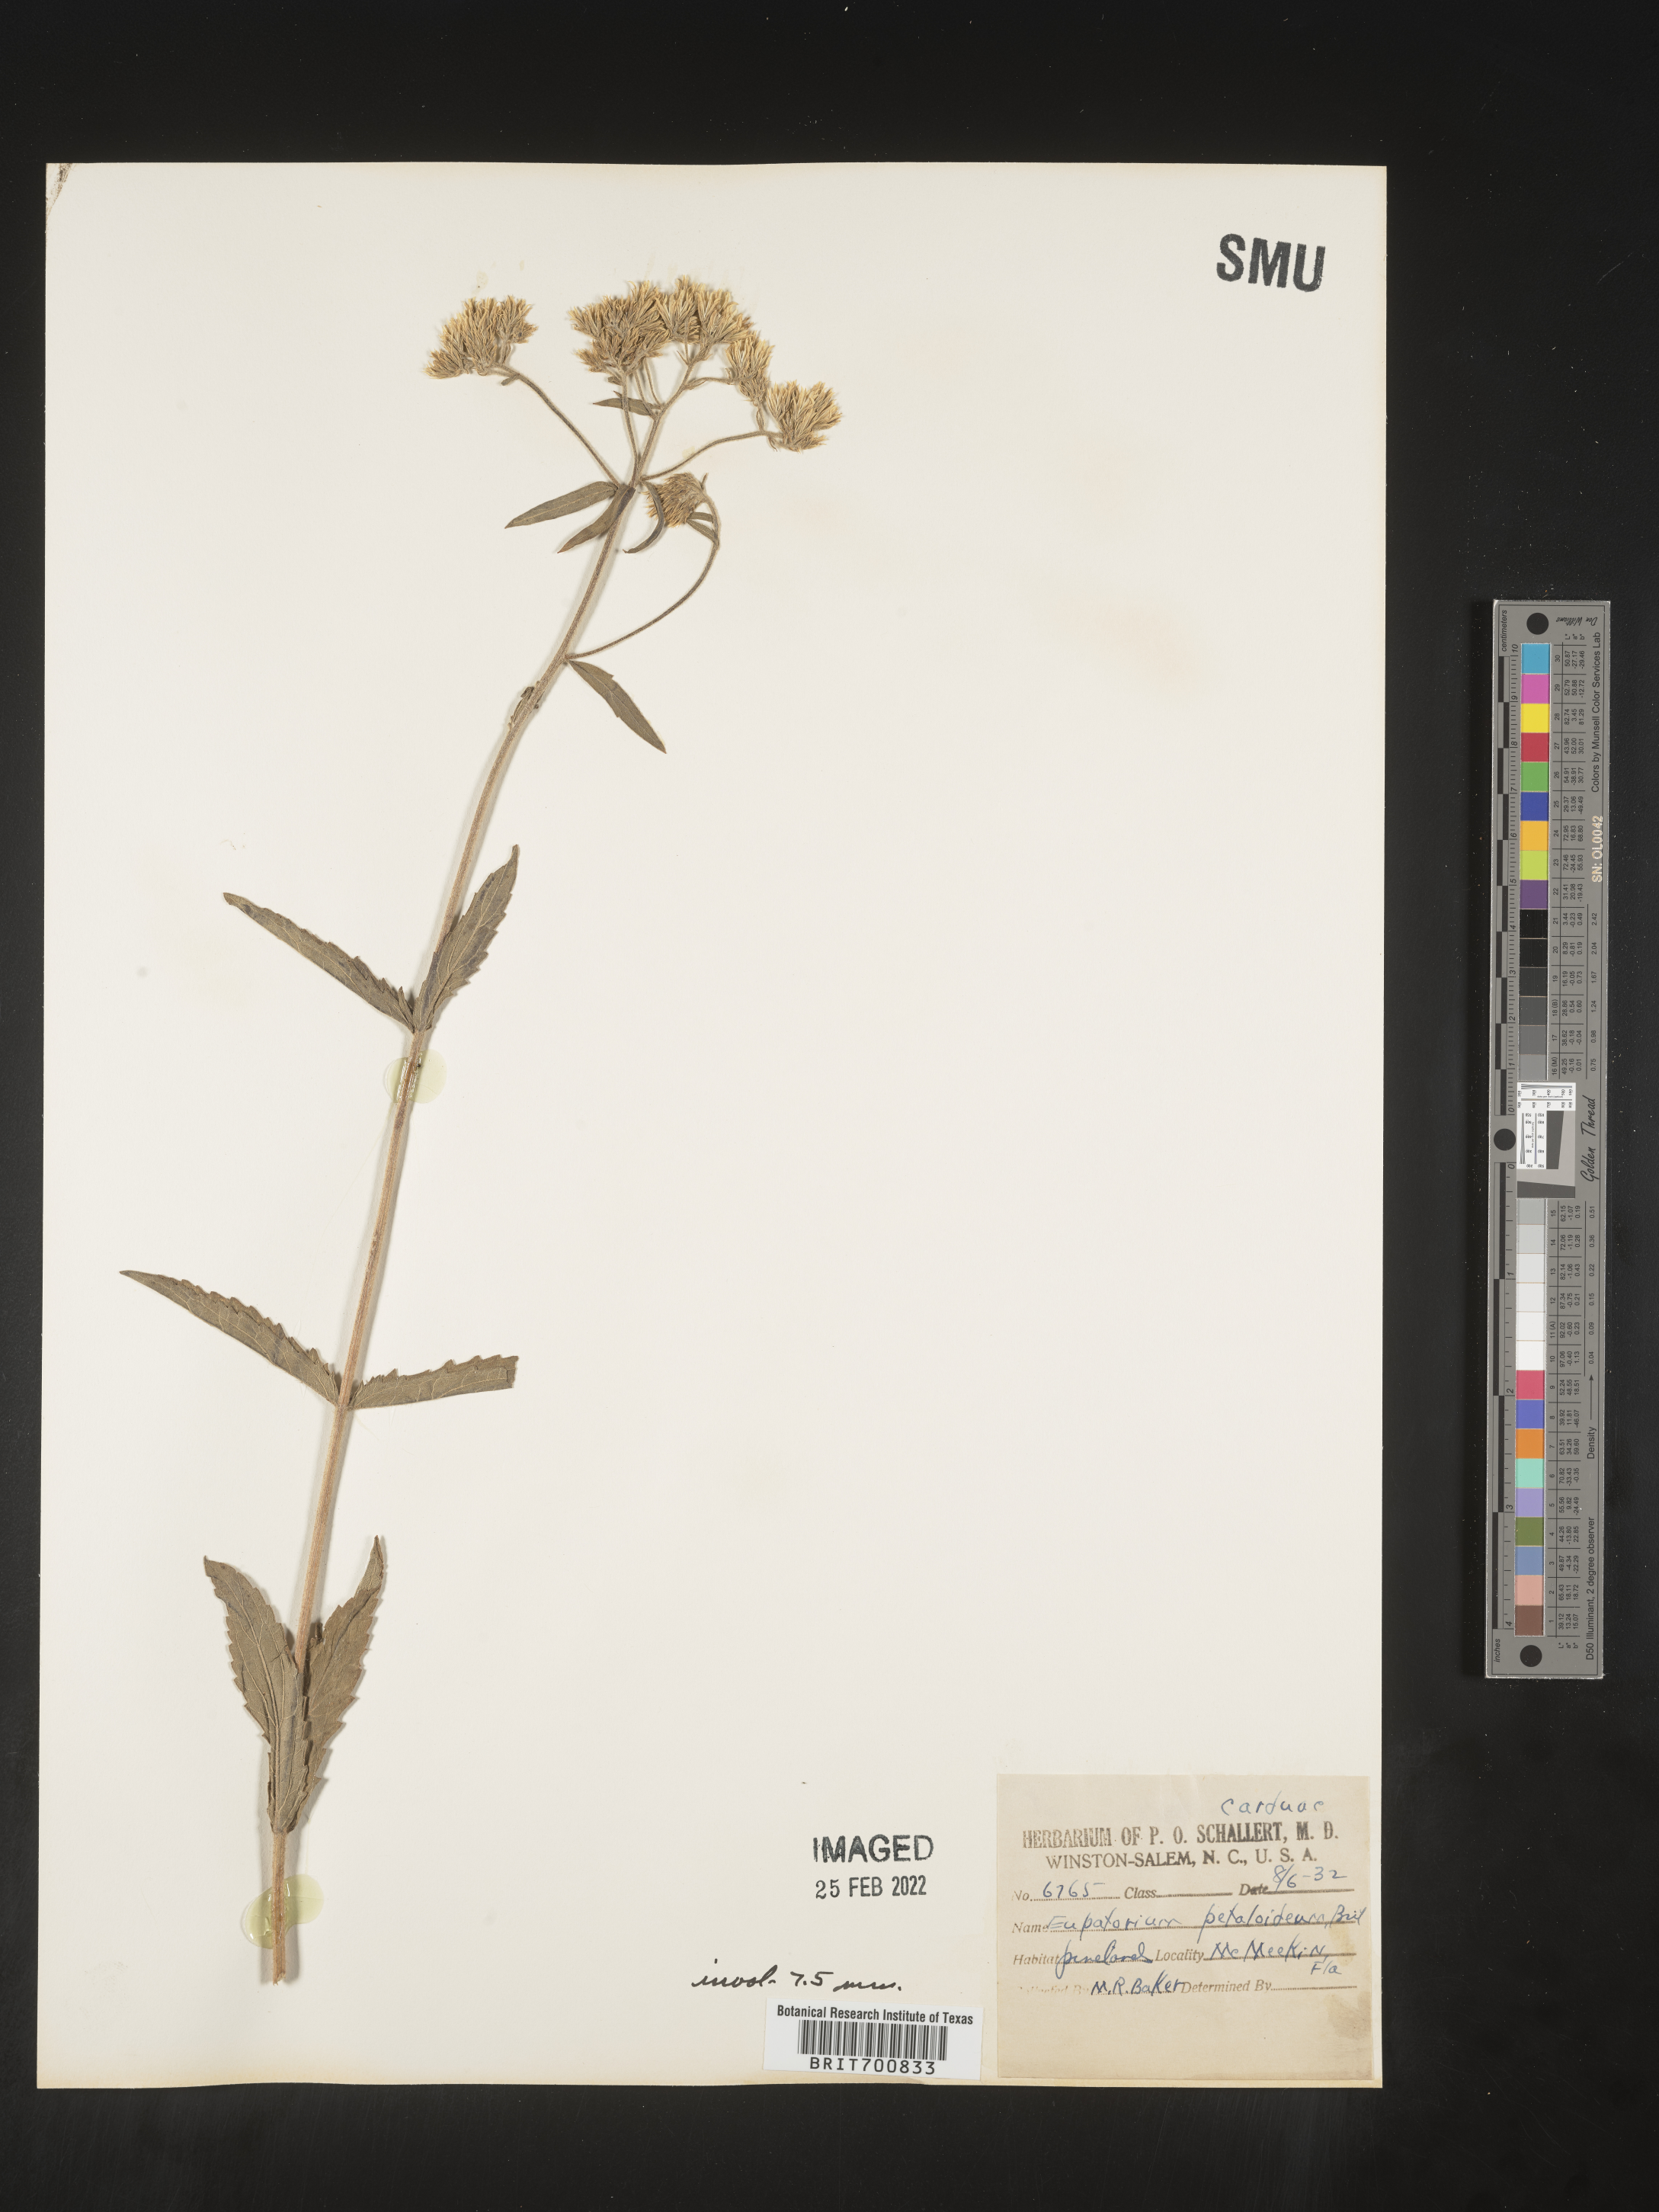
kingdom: Plantae
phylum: Tracheophyta
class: Magnoliopsida
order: Asterales
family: Asteraceae
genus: Eupatorium
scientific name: Eupatorium album
